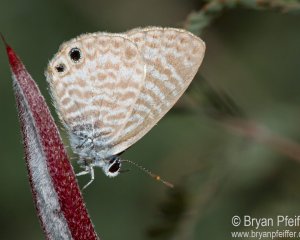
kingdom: Animalia
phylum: Arthropoda
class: Insecta
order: Lepidoptera
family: Lycaenidae
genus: Leptotes
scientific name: Leptotes marina
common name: Marine Blue
